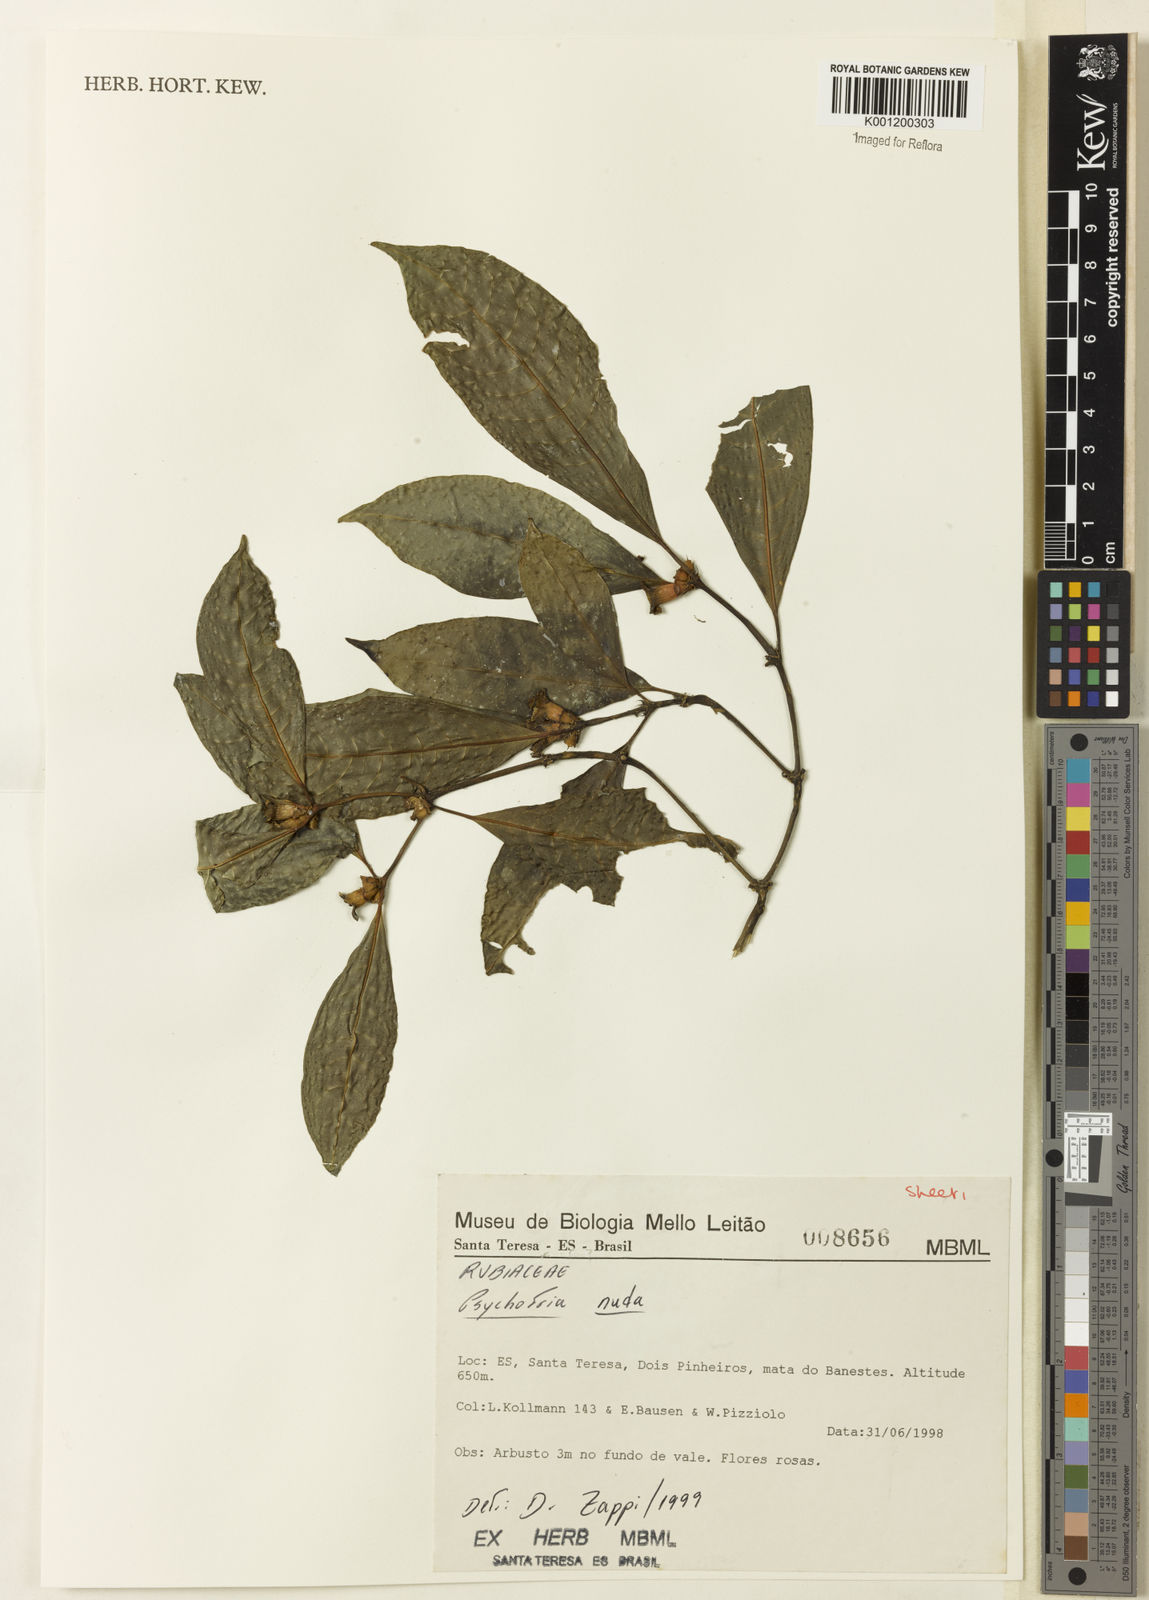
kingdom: Plantae
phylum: Tracheophyta
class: Magnoliopsida
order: Gentianales
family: Rubiaceae
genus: Psychotria
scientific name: Psychotria nuda
